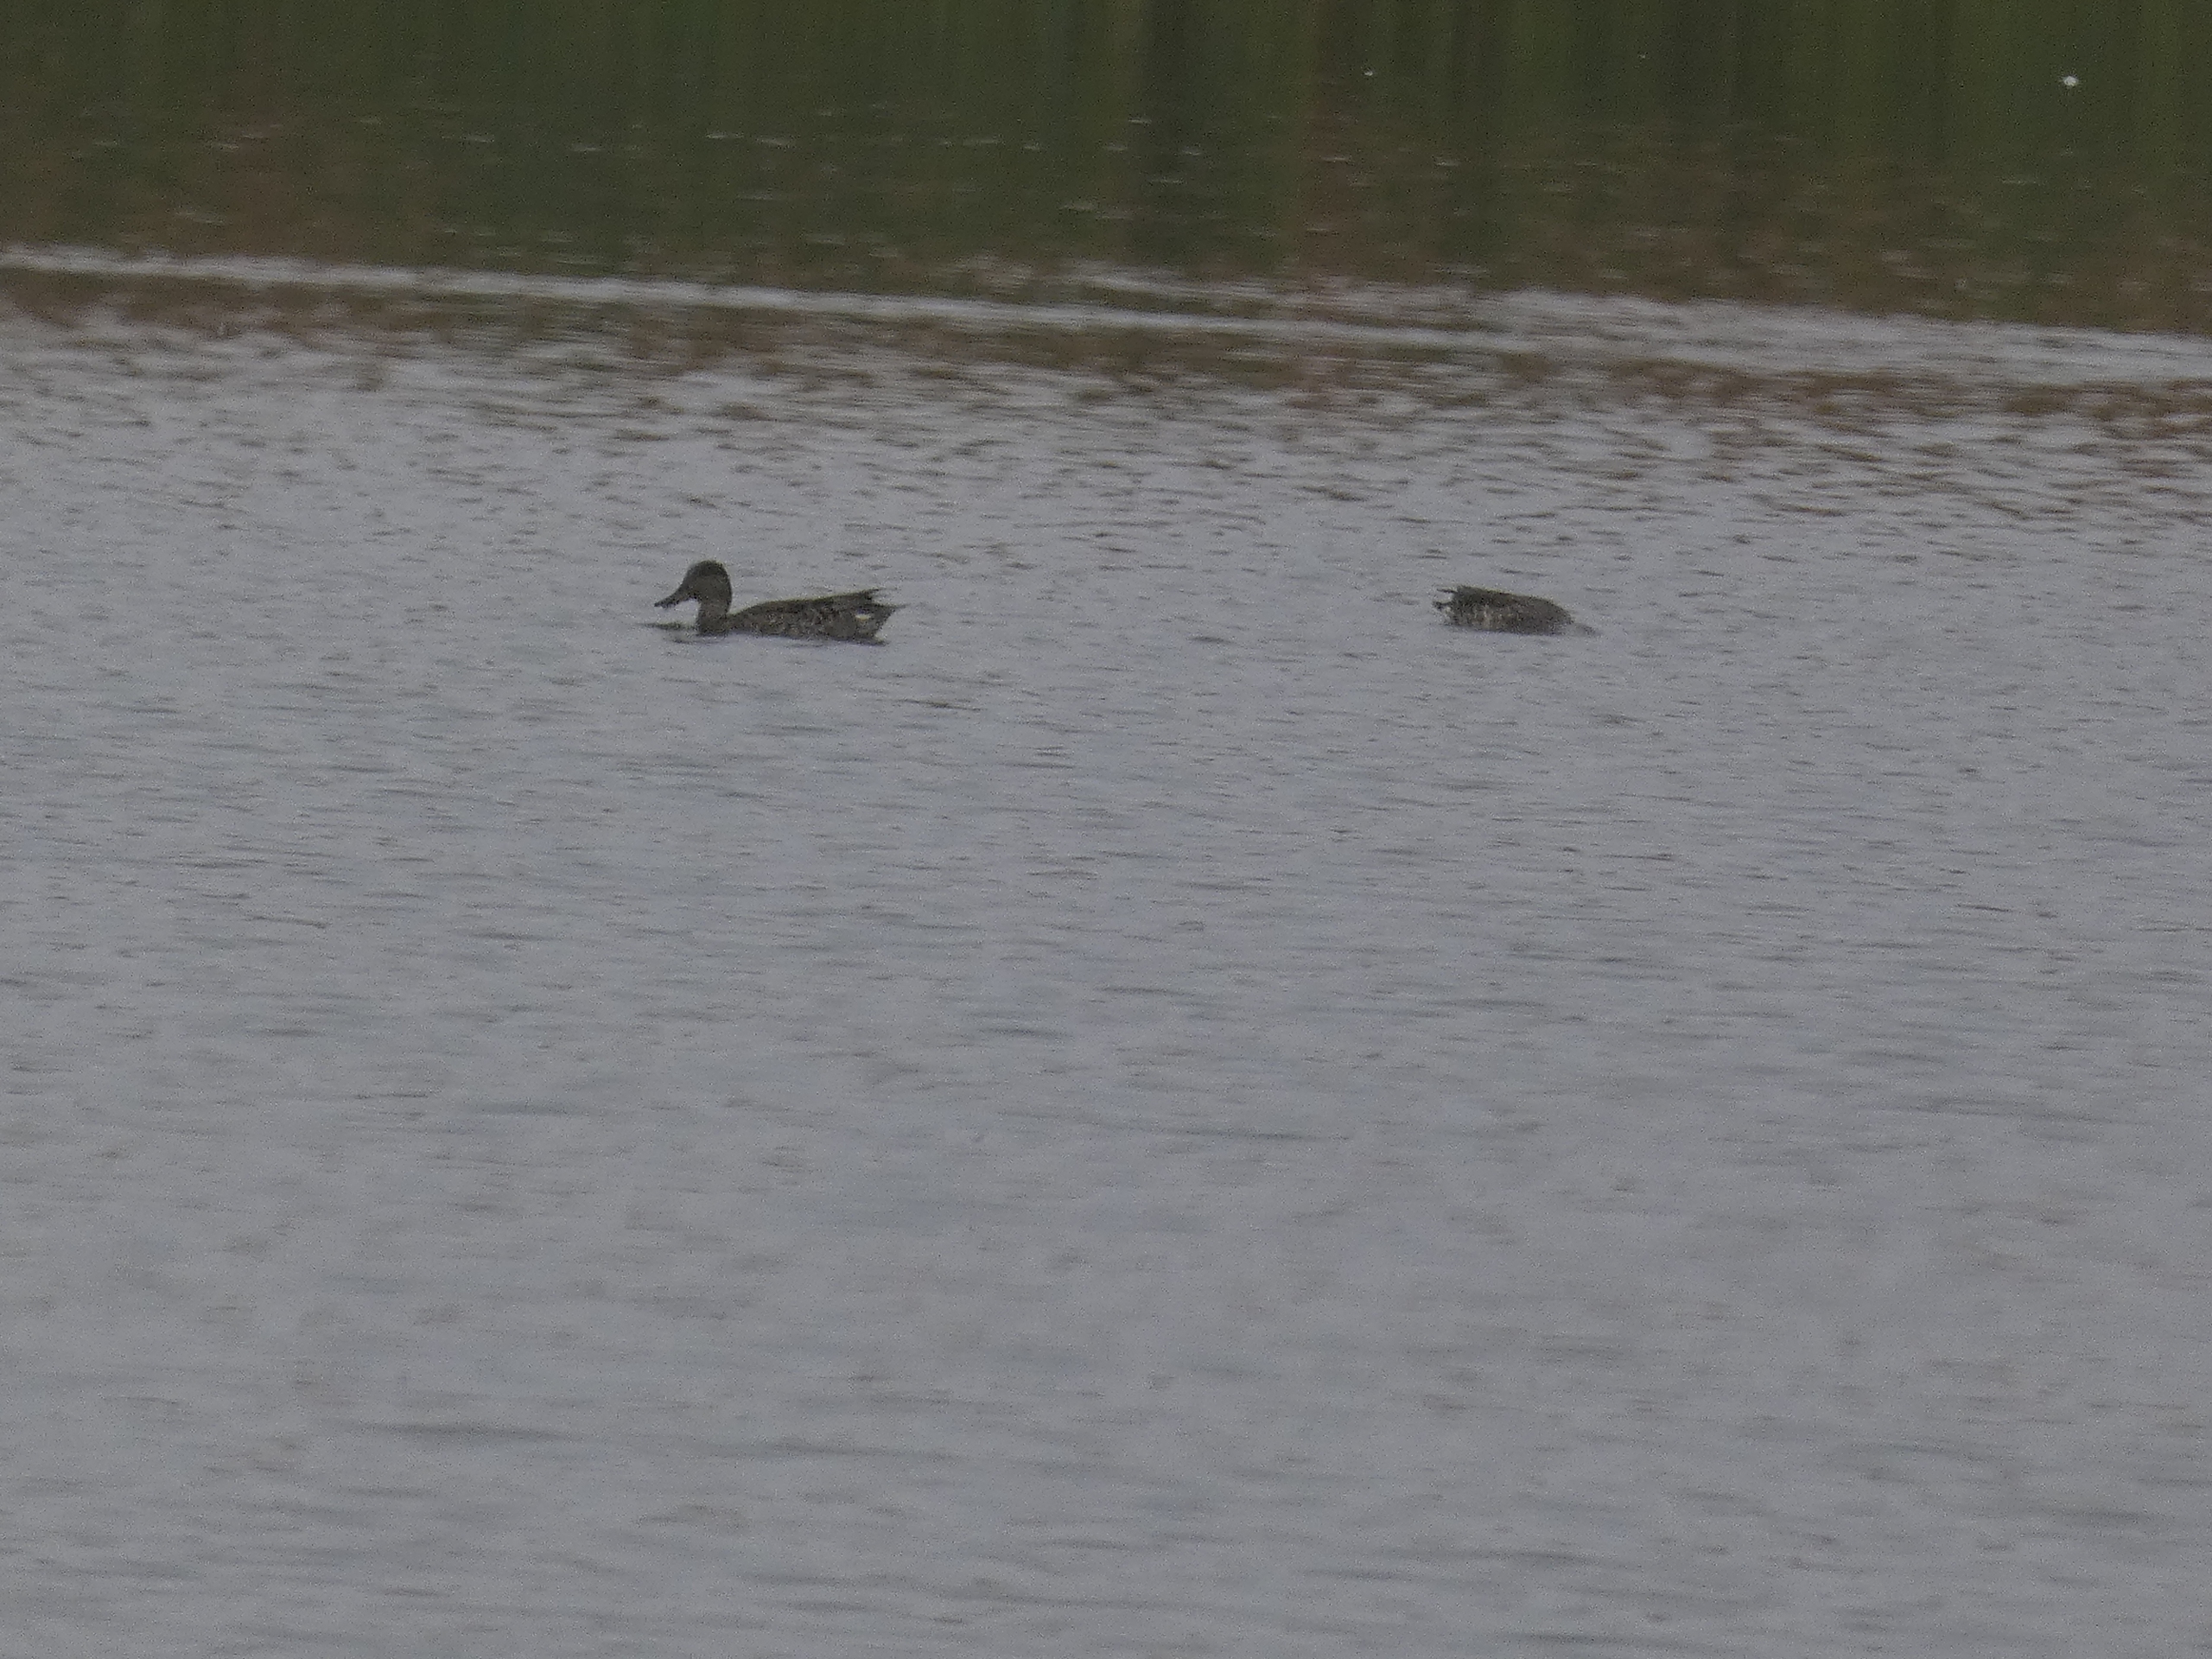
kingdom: Animalia
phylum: Chordata
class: Aves
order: Anseriformes
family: Anatidae
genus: Mareca
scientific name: Mareca strepera
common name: Knarand
